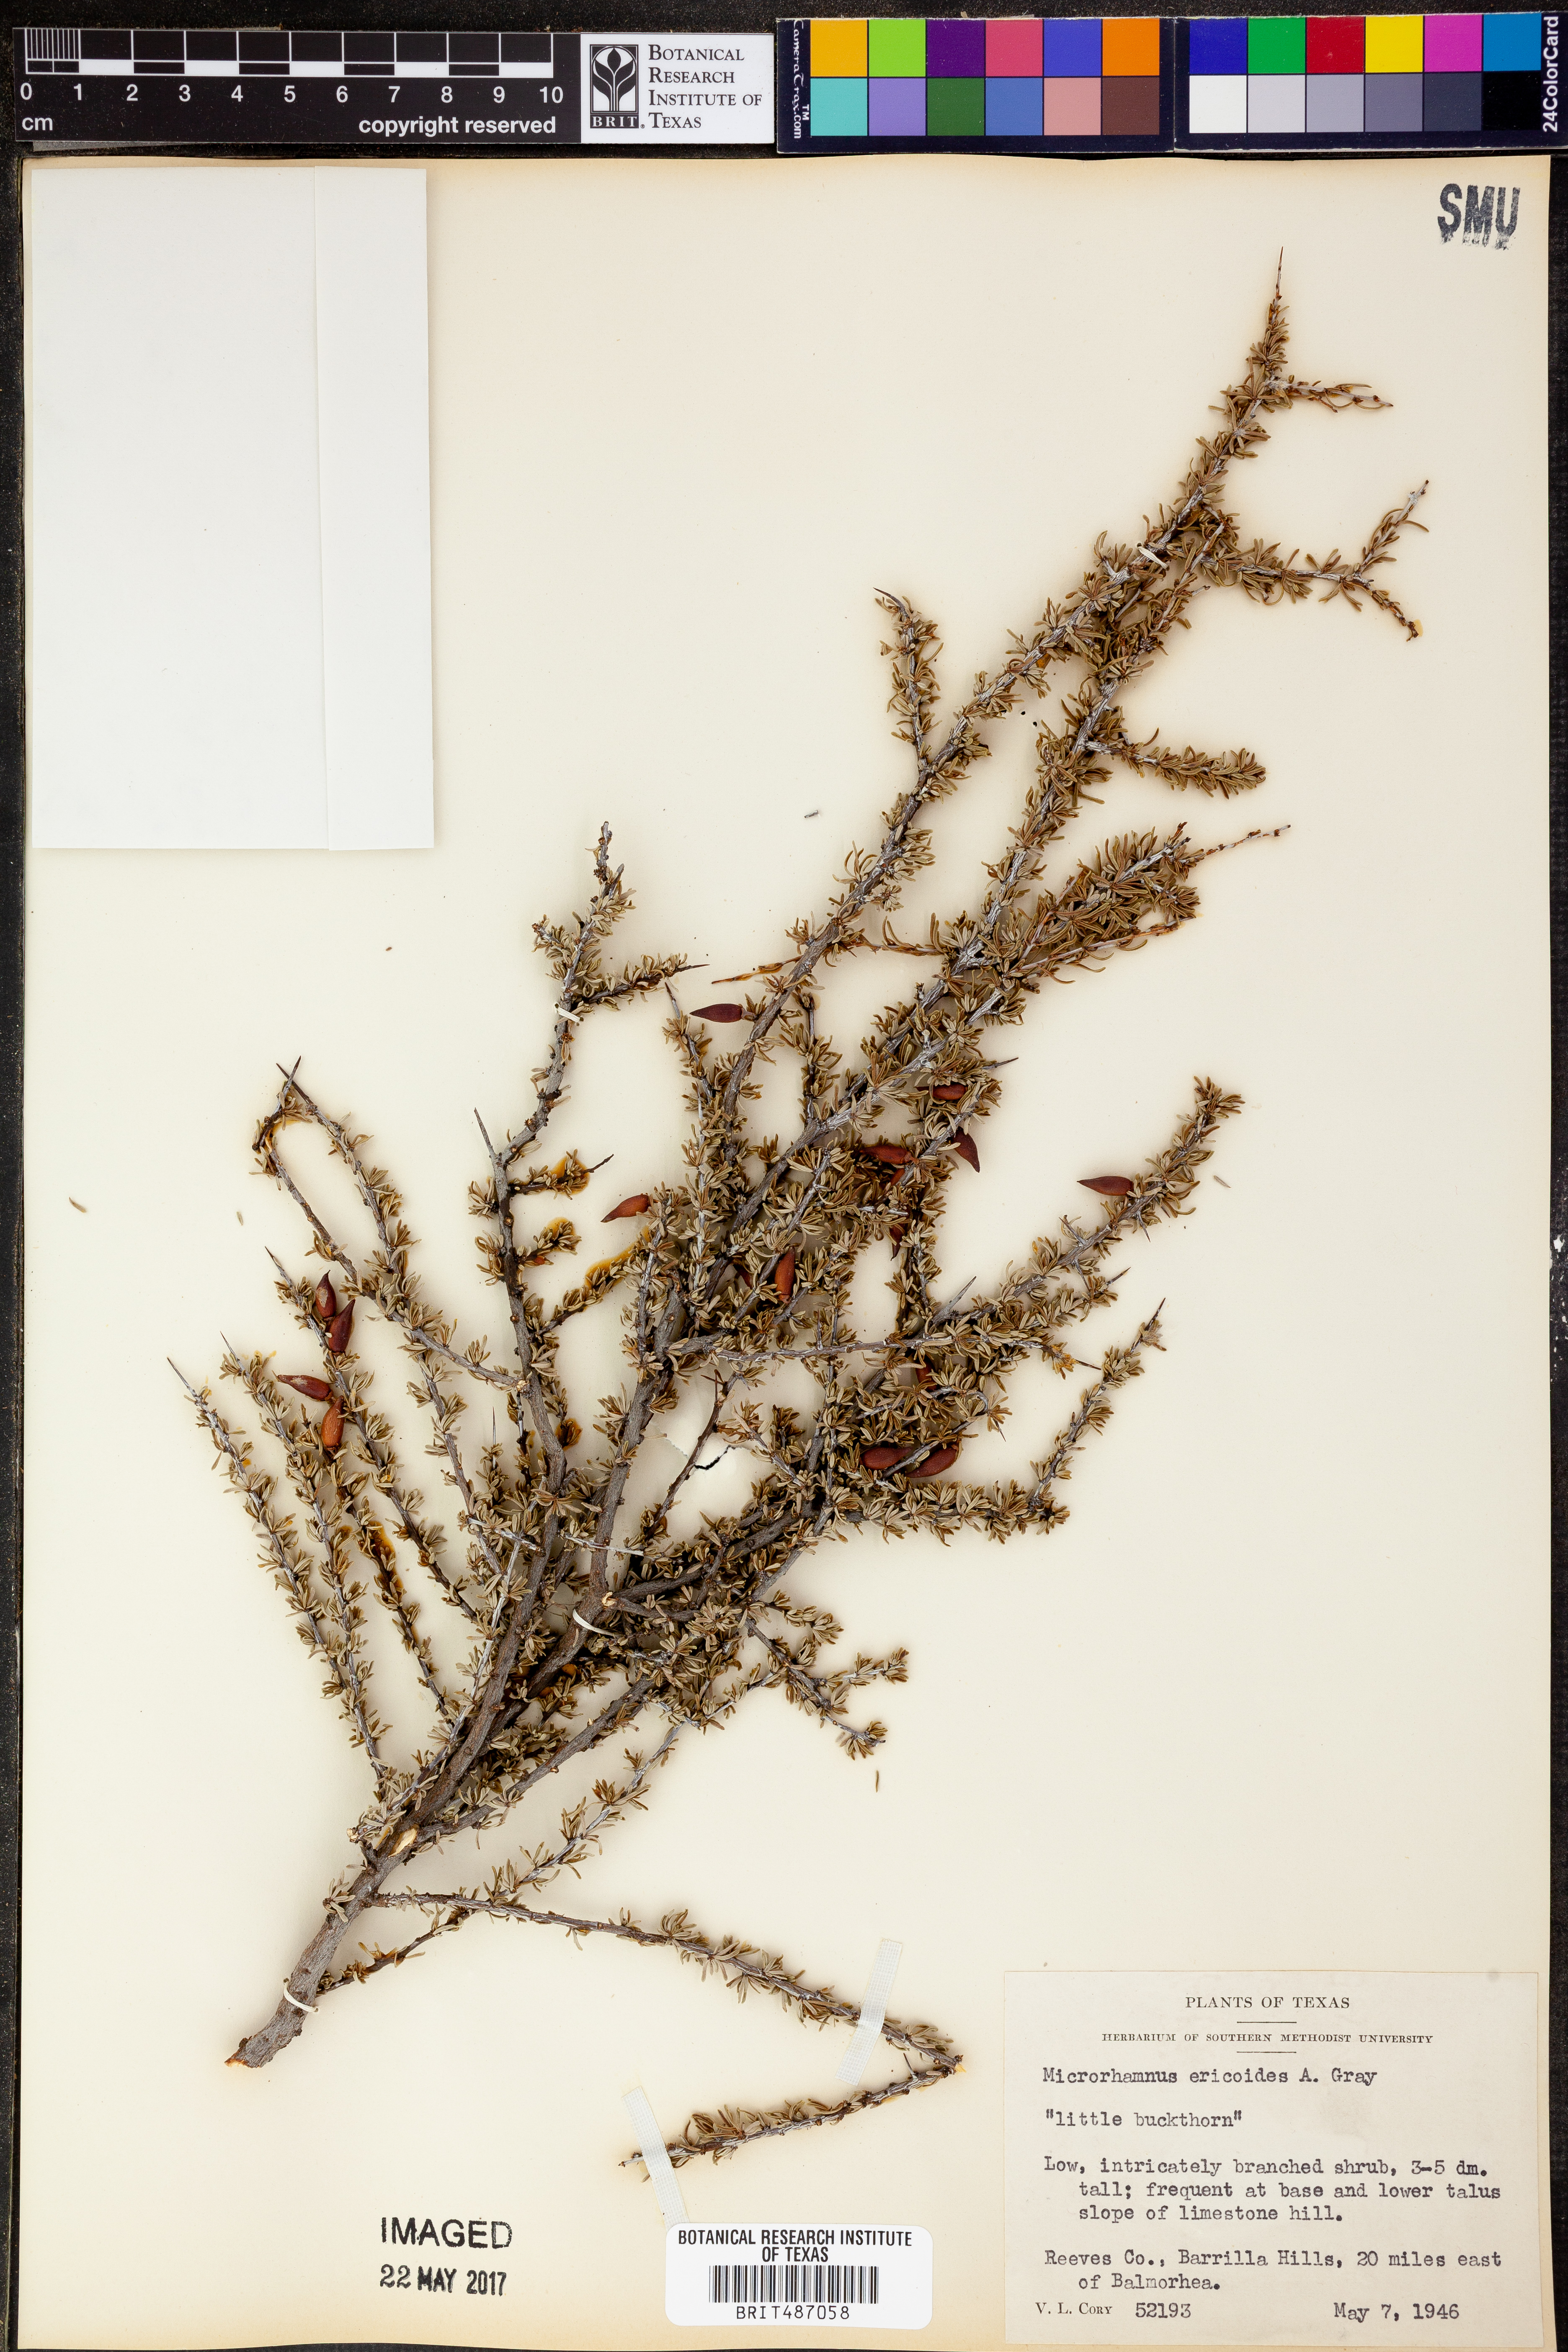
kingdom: Plantae
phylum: Tracheophyta
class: Magnoliopsida
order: Rosales
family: Rhamnaceae
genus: Condalia
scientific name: Condalia ericoides
